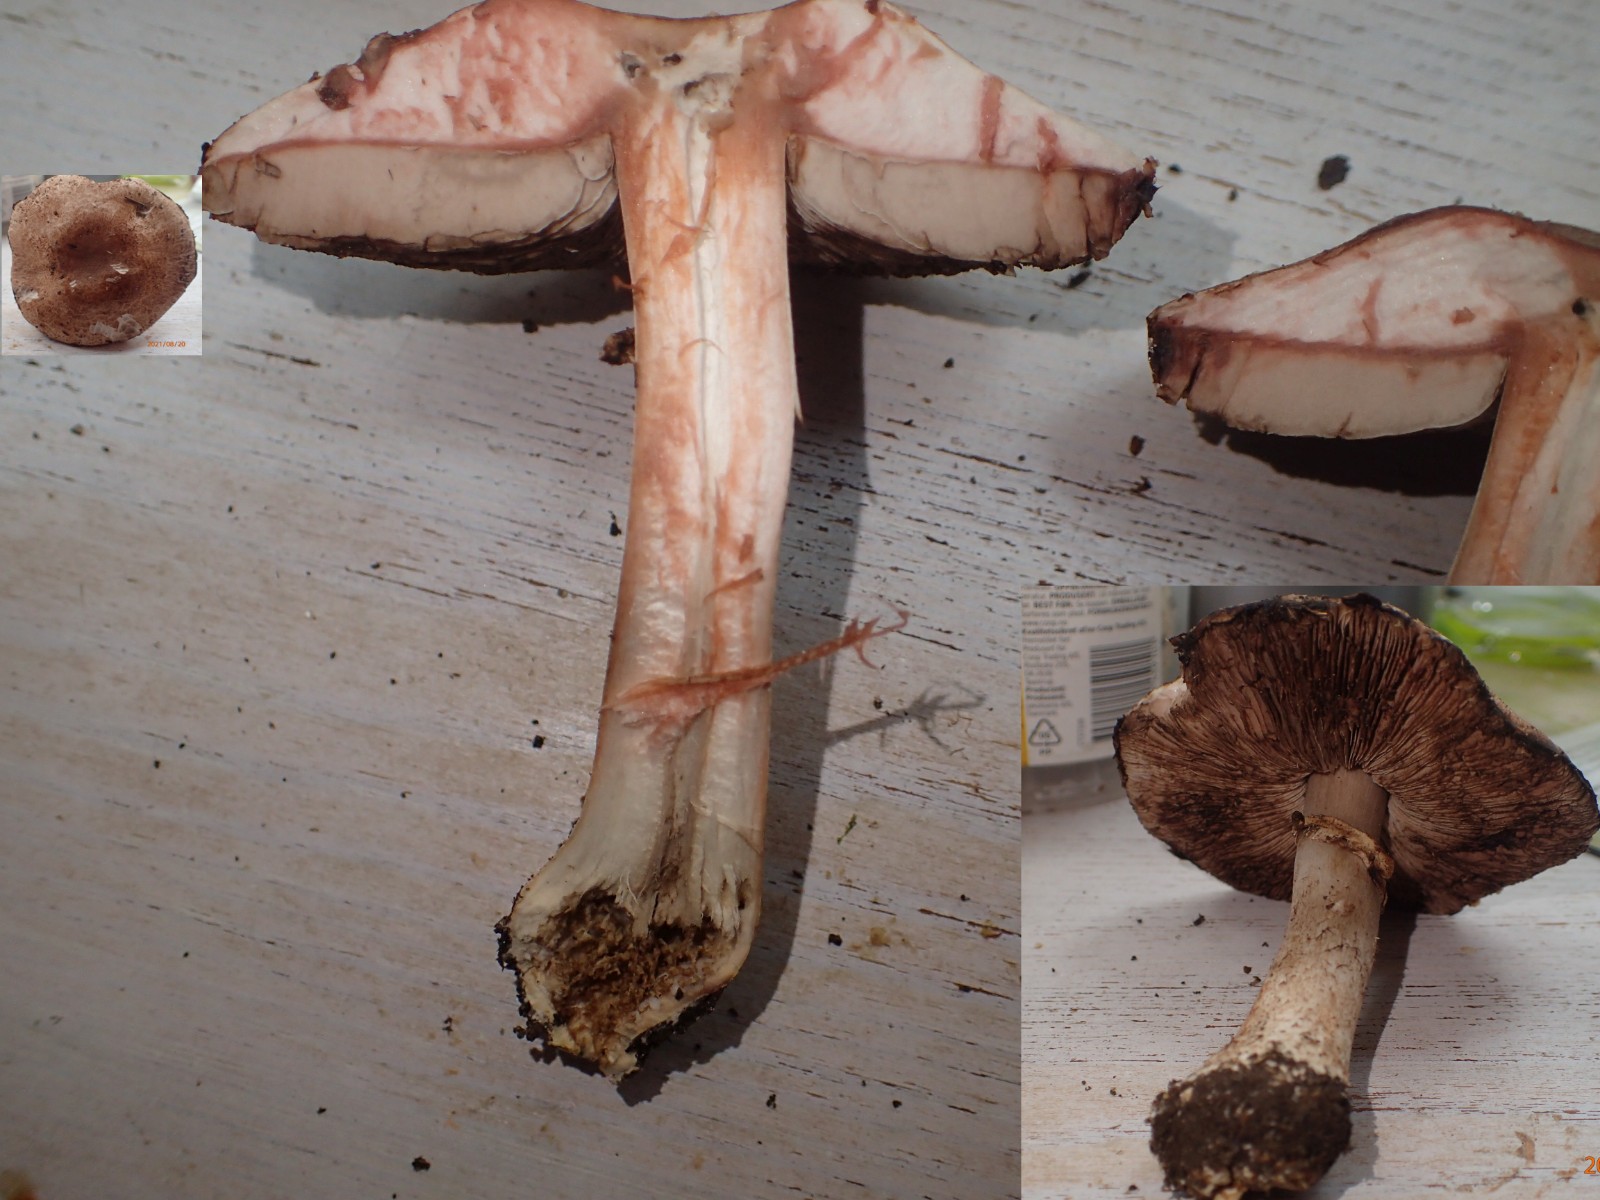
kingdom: Fungi
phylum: Basidiomycota
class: Agaricomycetes
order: Agaricales
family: Agaricaceae
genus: Agaricus
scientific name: Agaricus
